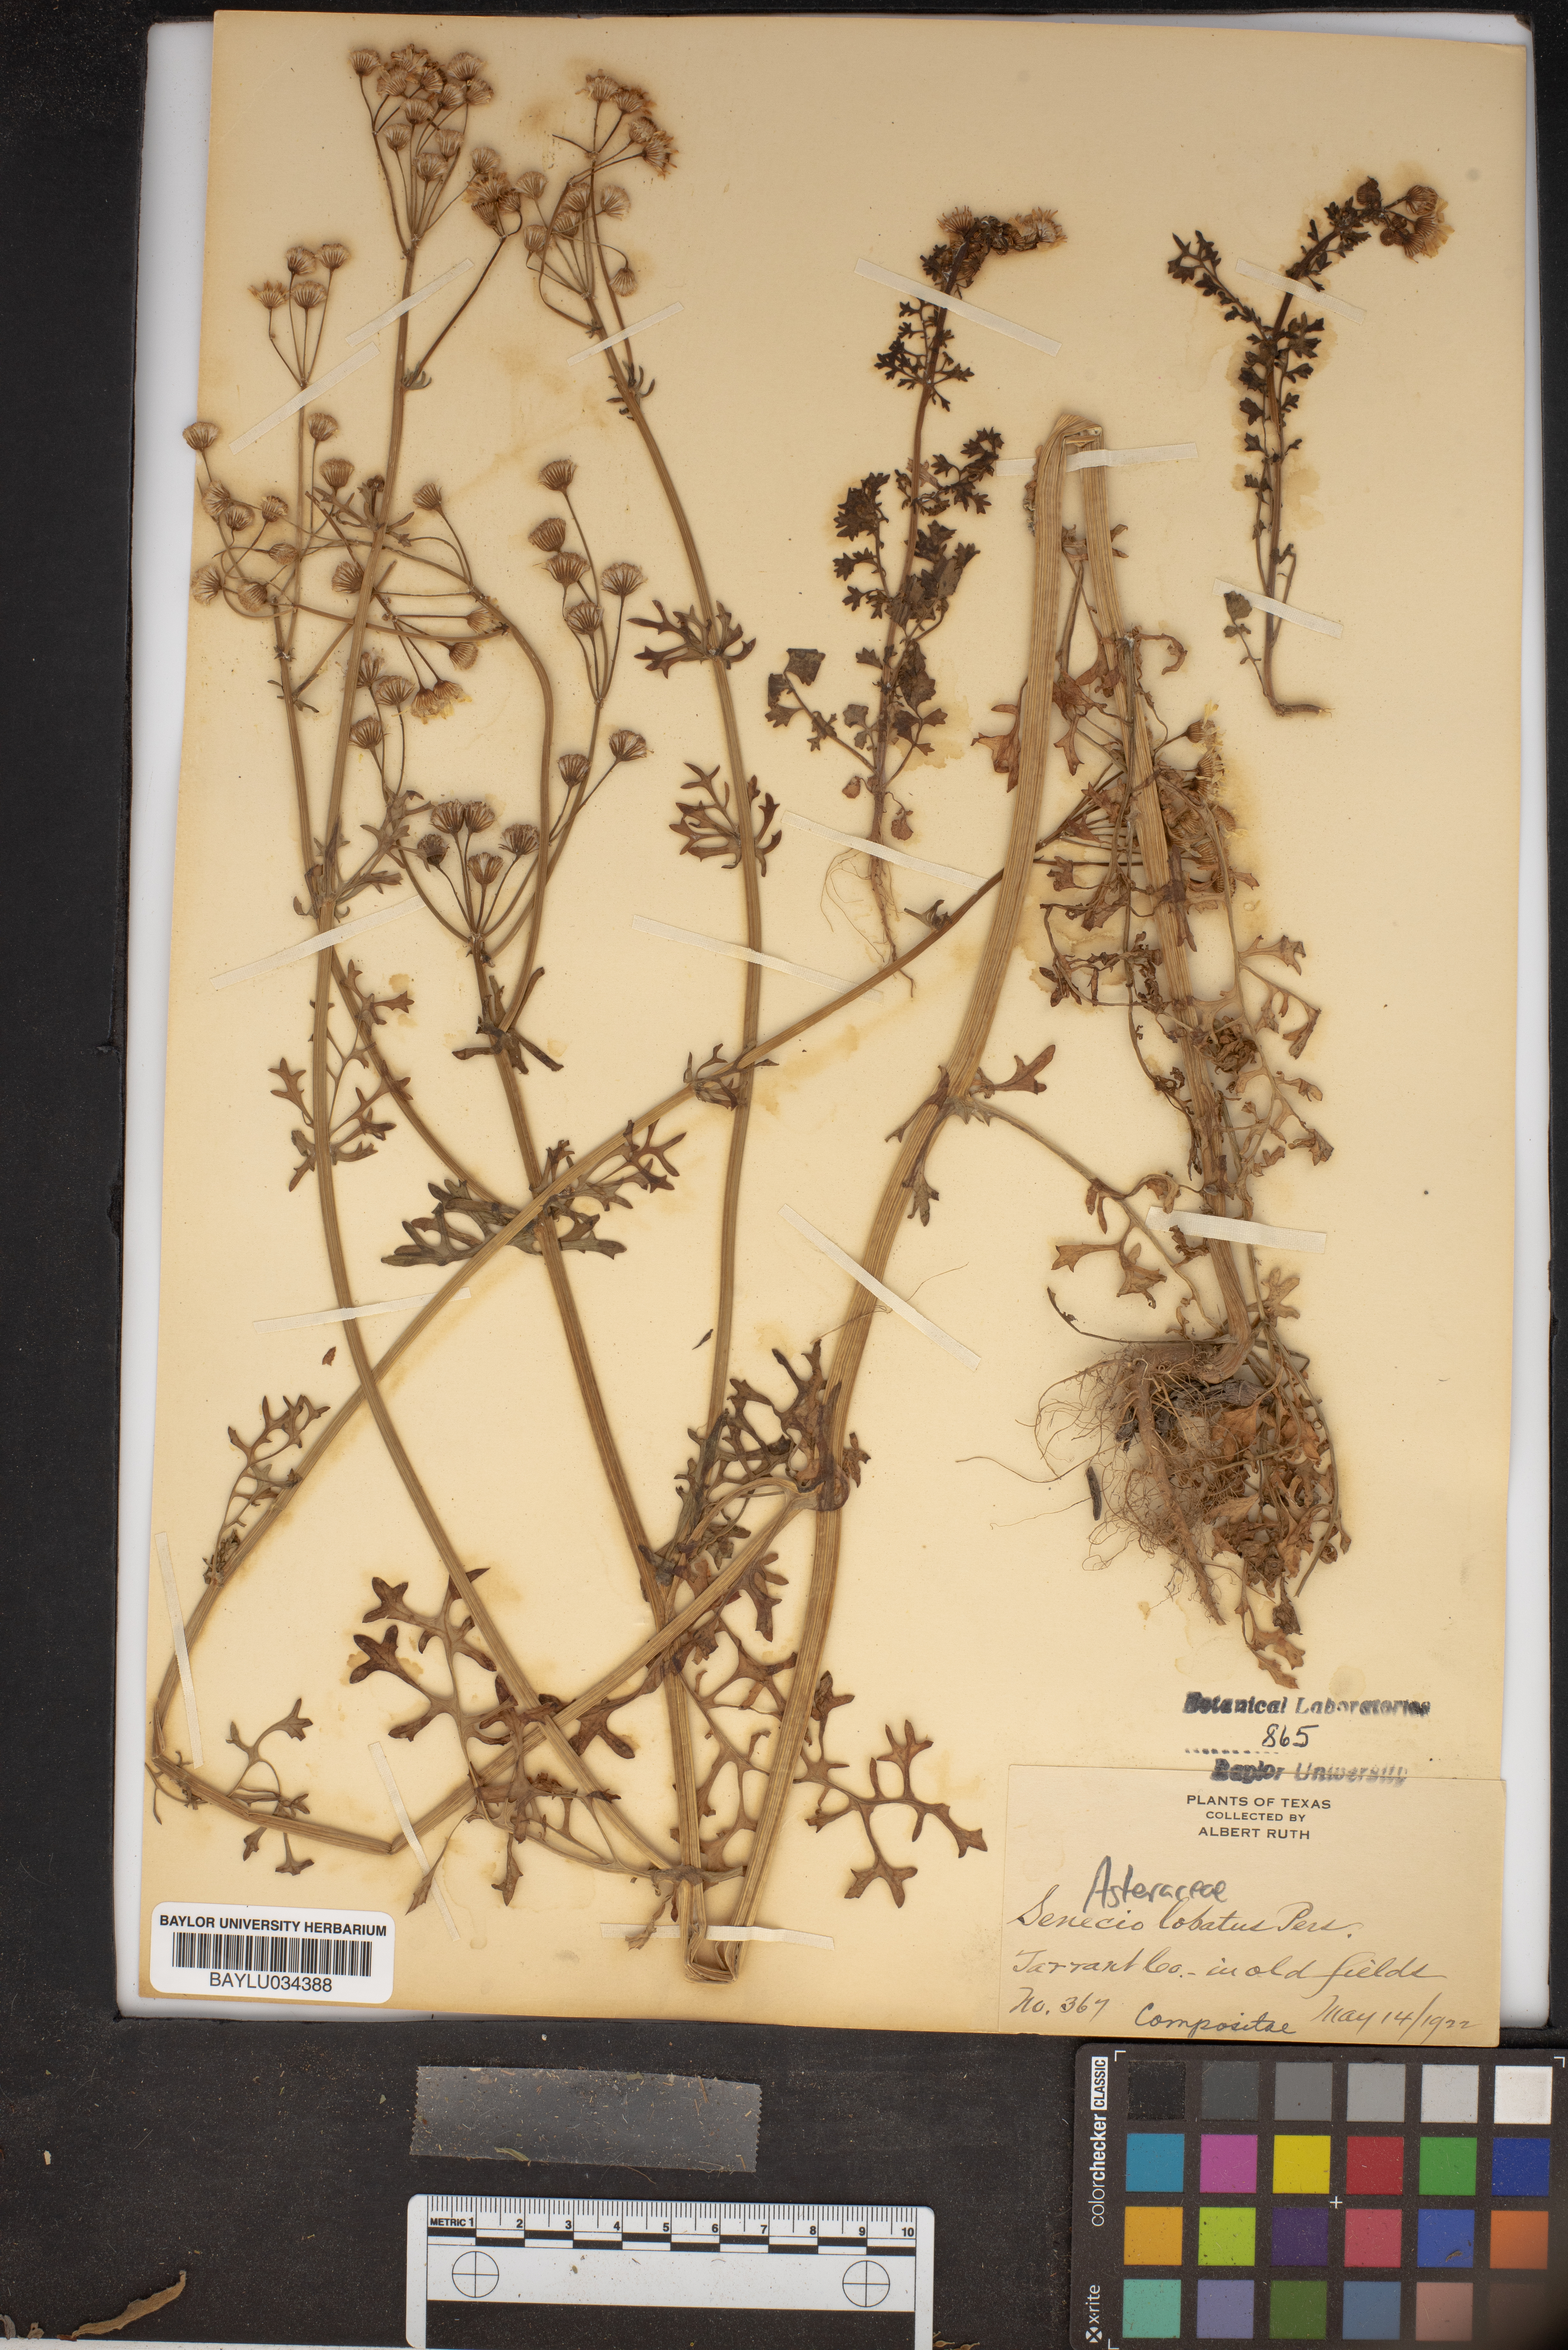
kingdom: Plantae
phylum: Tracheophyta
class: Magnoliopsida
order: Asterales
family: Asteraceae
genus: Packera
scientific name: Packera glabella
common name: Butterweed
